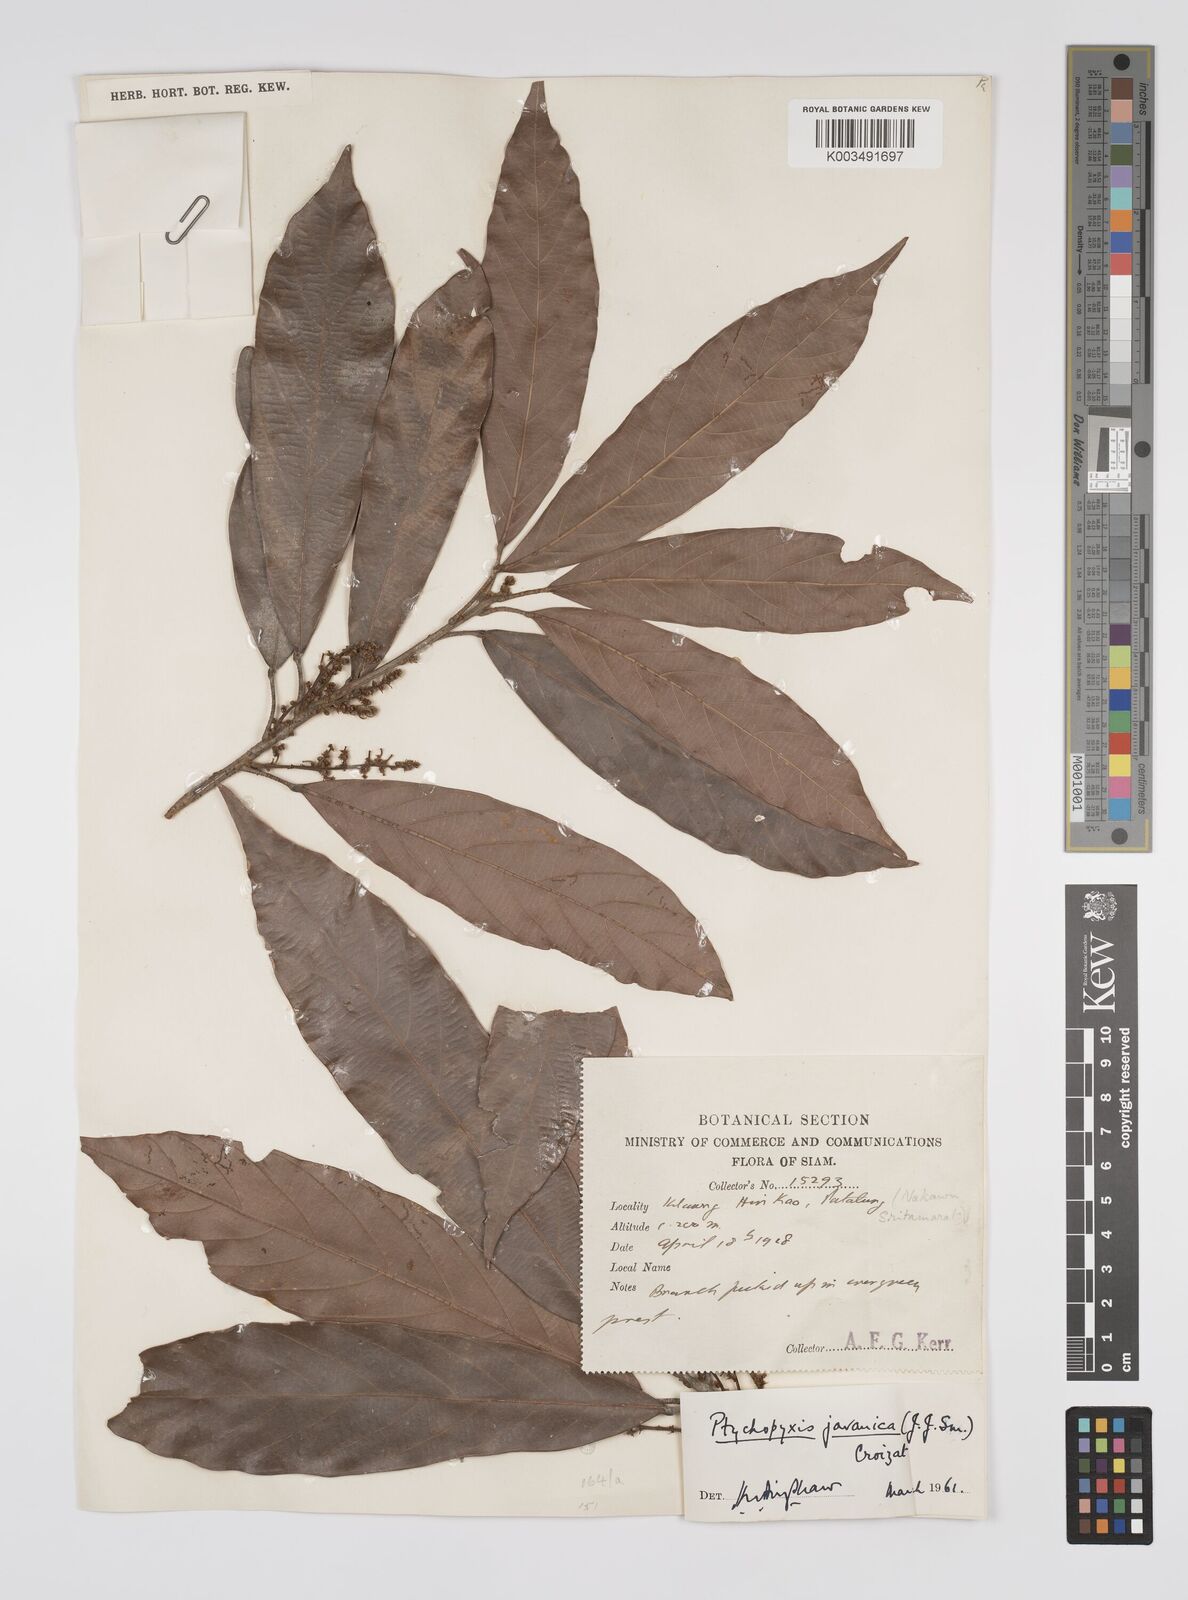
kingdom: Plantae
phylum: Tracheophyta
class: Magnoliopsida
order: Malpighiales
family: Euphorbiaceae
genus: Ptychopyxis
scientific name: Ptychopyxis javanica
